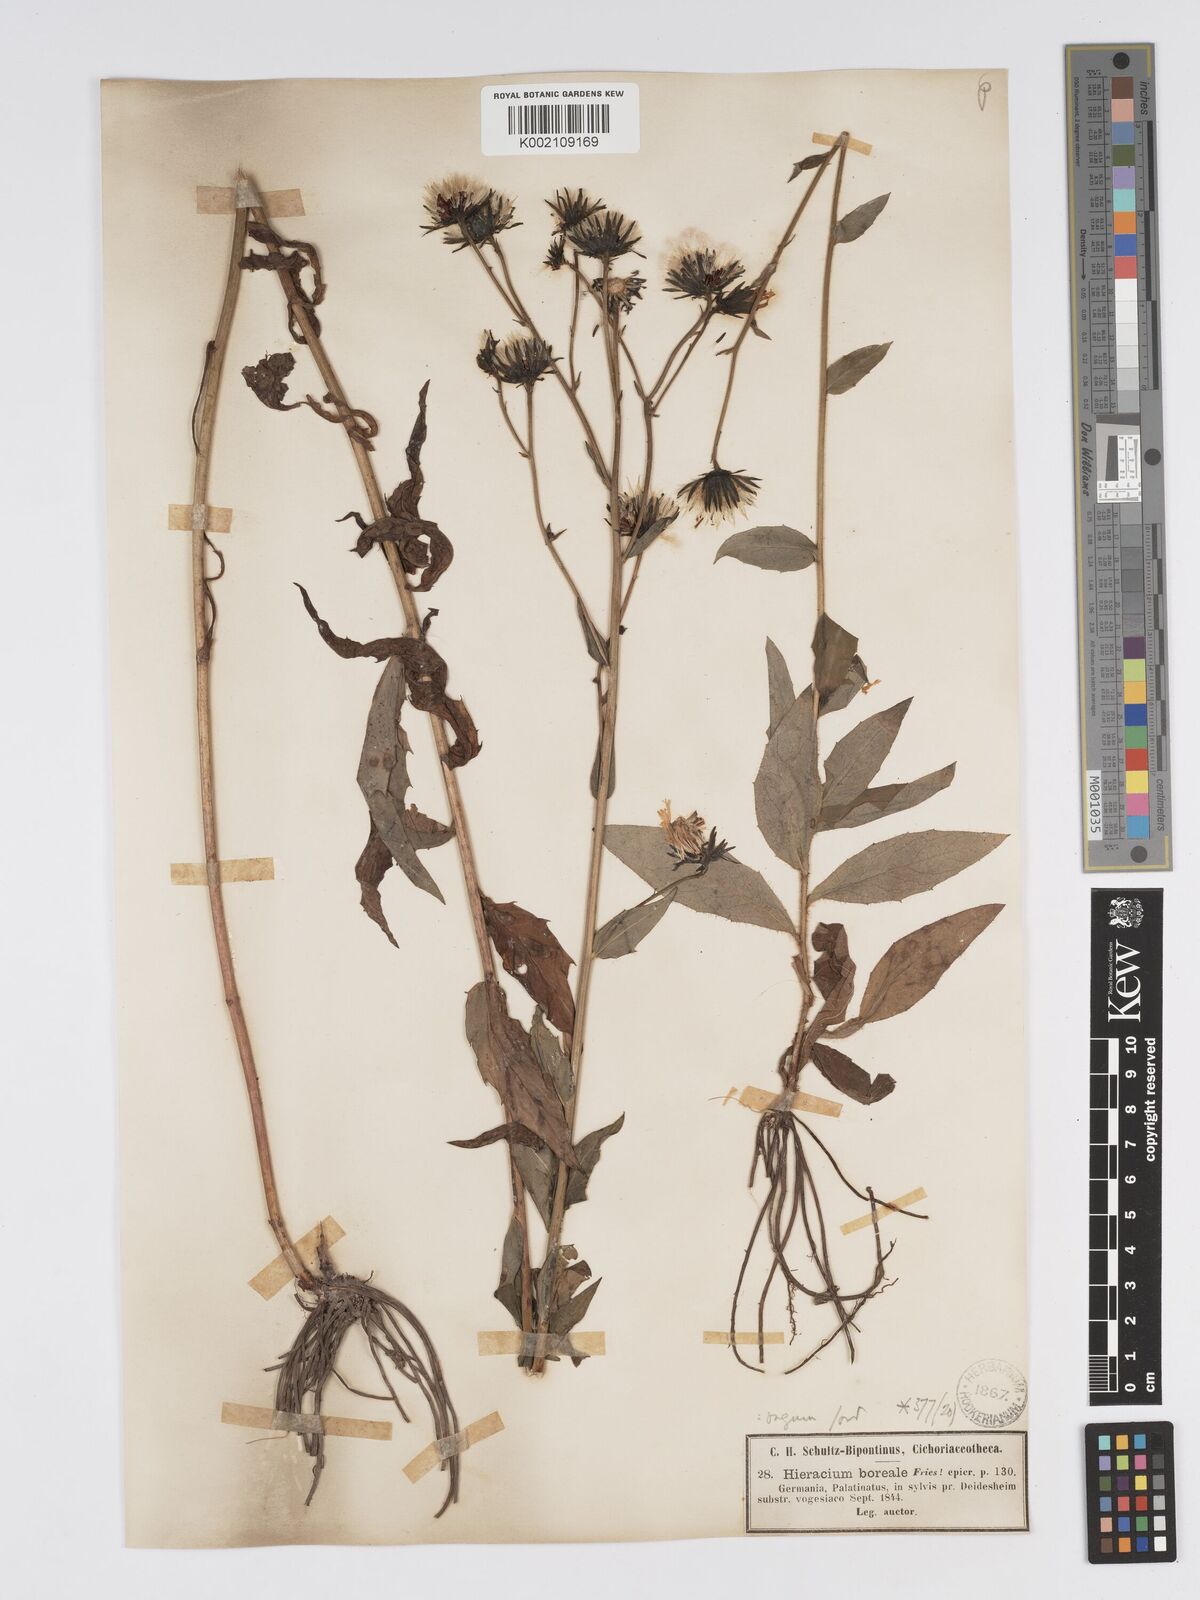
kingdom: Plantae
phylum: Tracheophyta
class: Magnoliopsida
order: Asterales
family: Asteraceae
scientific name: Asteraceae
